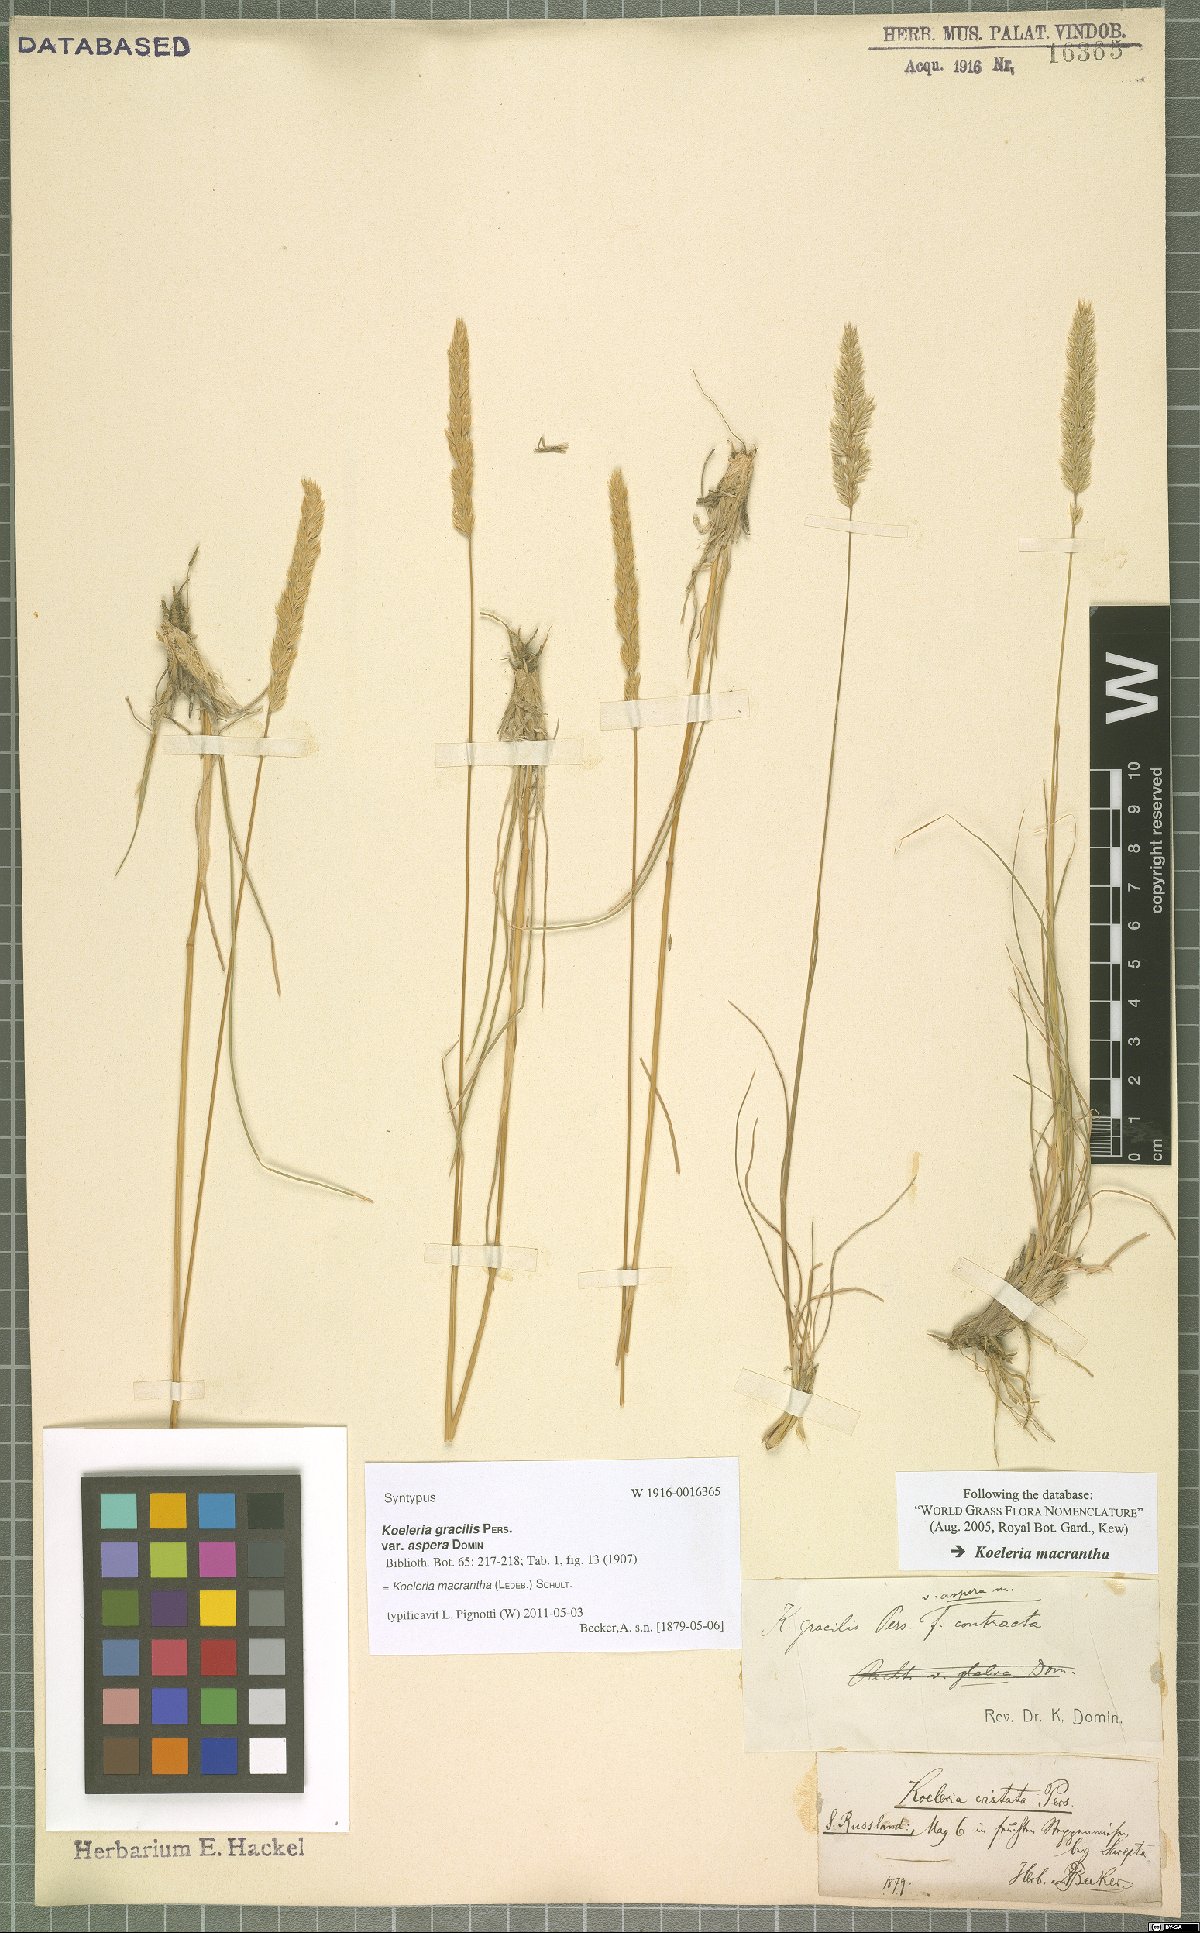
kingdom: Plantae
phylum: Tracheophyta
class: Liliopsida
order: Poales
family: Poaceae
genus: Koeleria
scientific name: Koeleria macrantha
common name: Crested hair-grass
